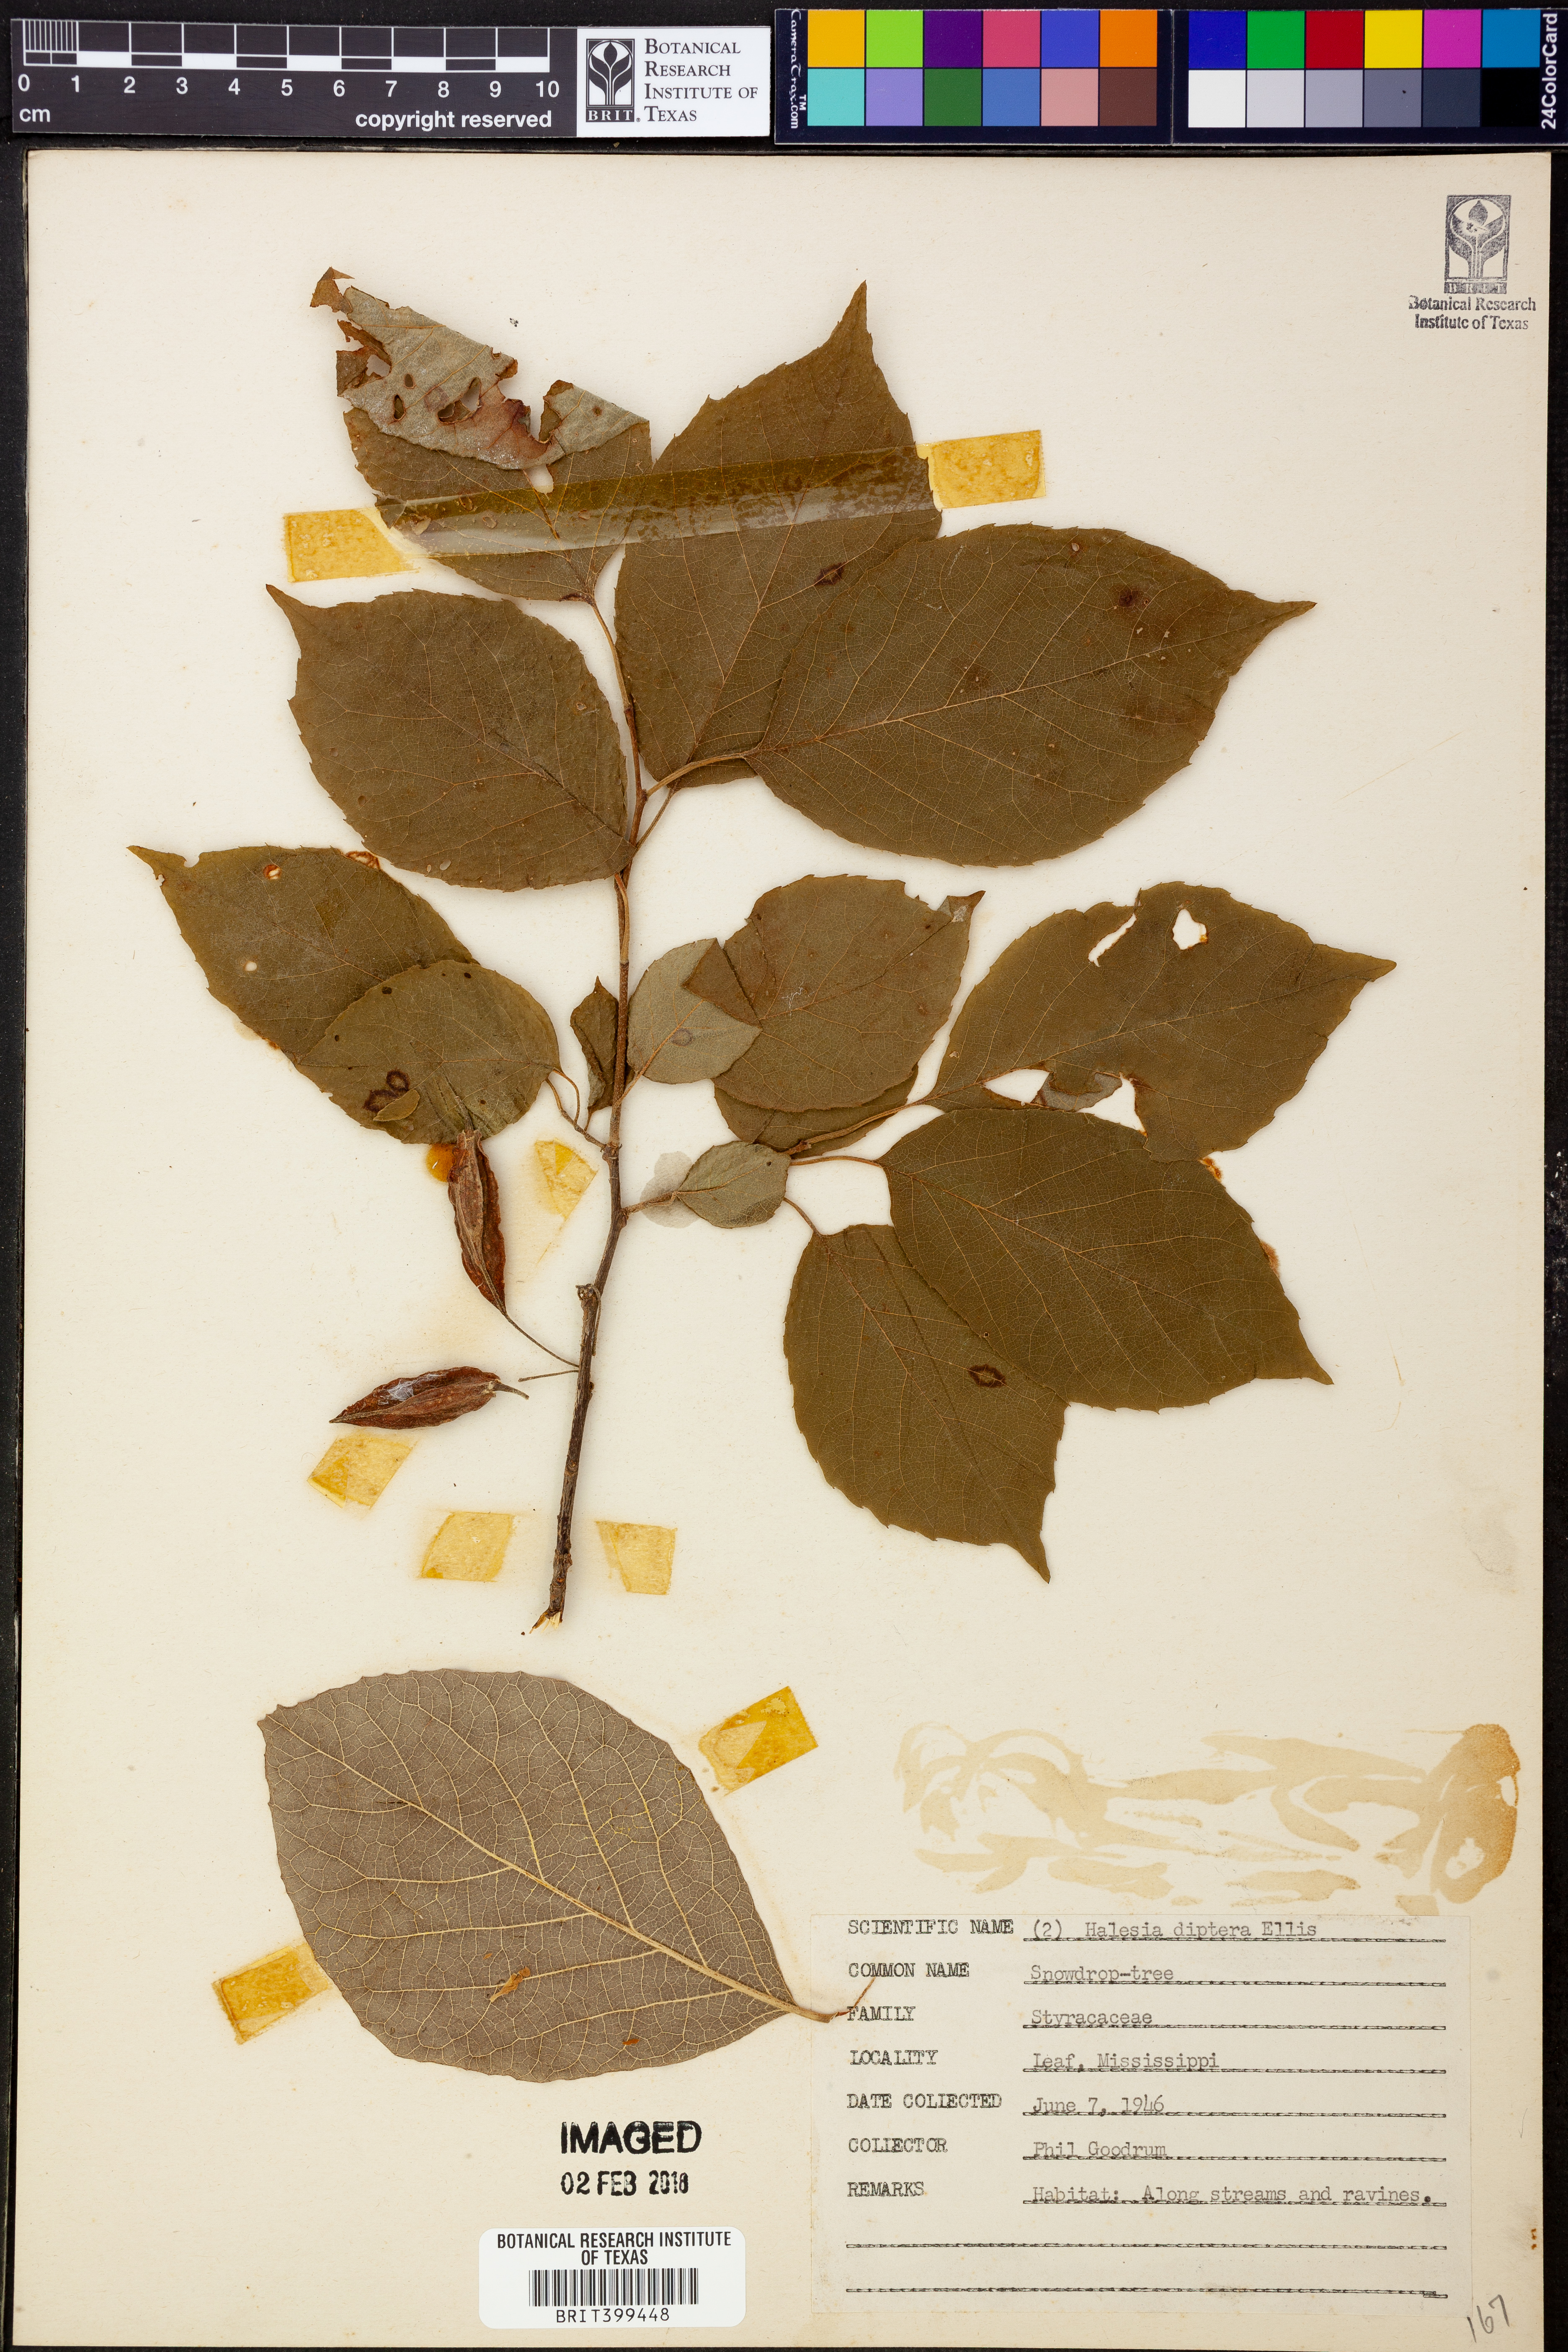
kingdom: Plantae
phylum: Tracheophyta
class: Magnoliopsida
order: Ericales
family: Styracaceae
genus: Halesia
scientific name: Halesia diptera
